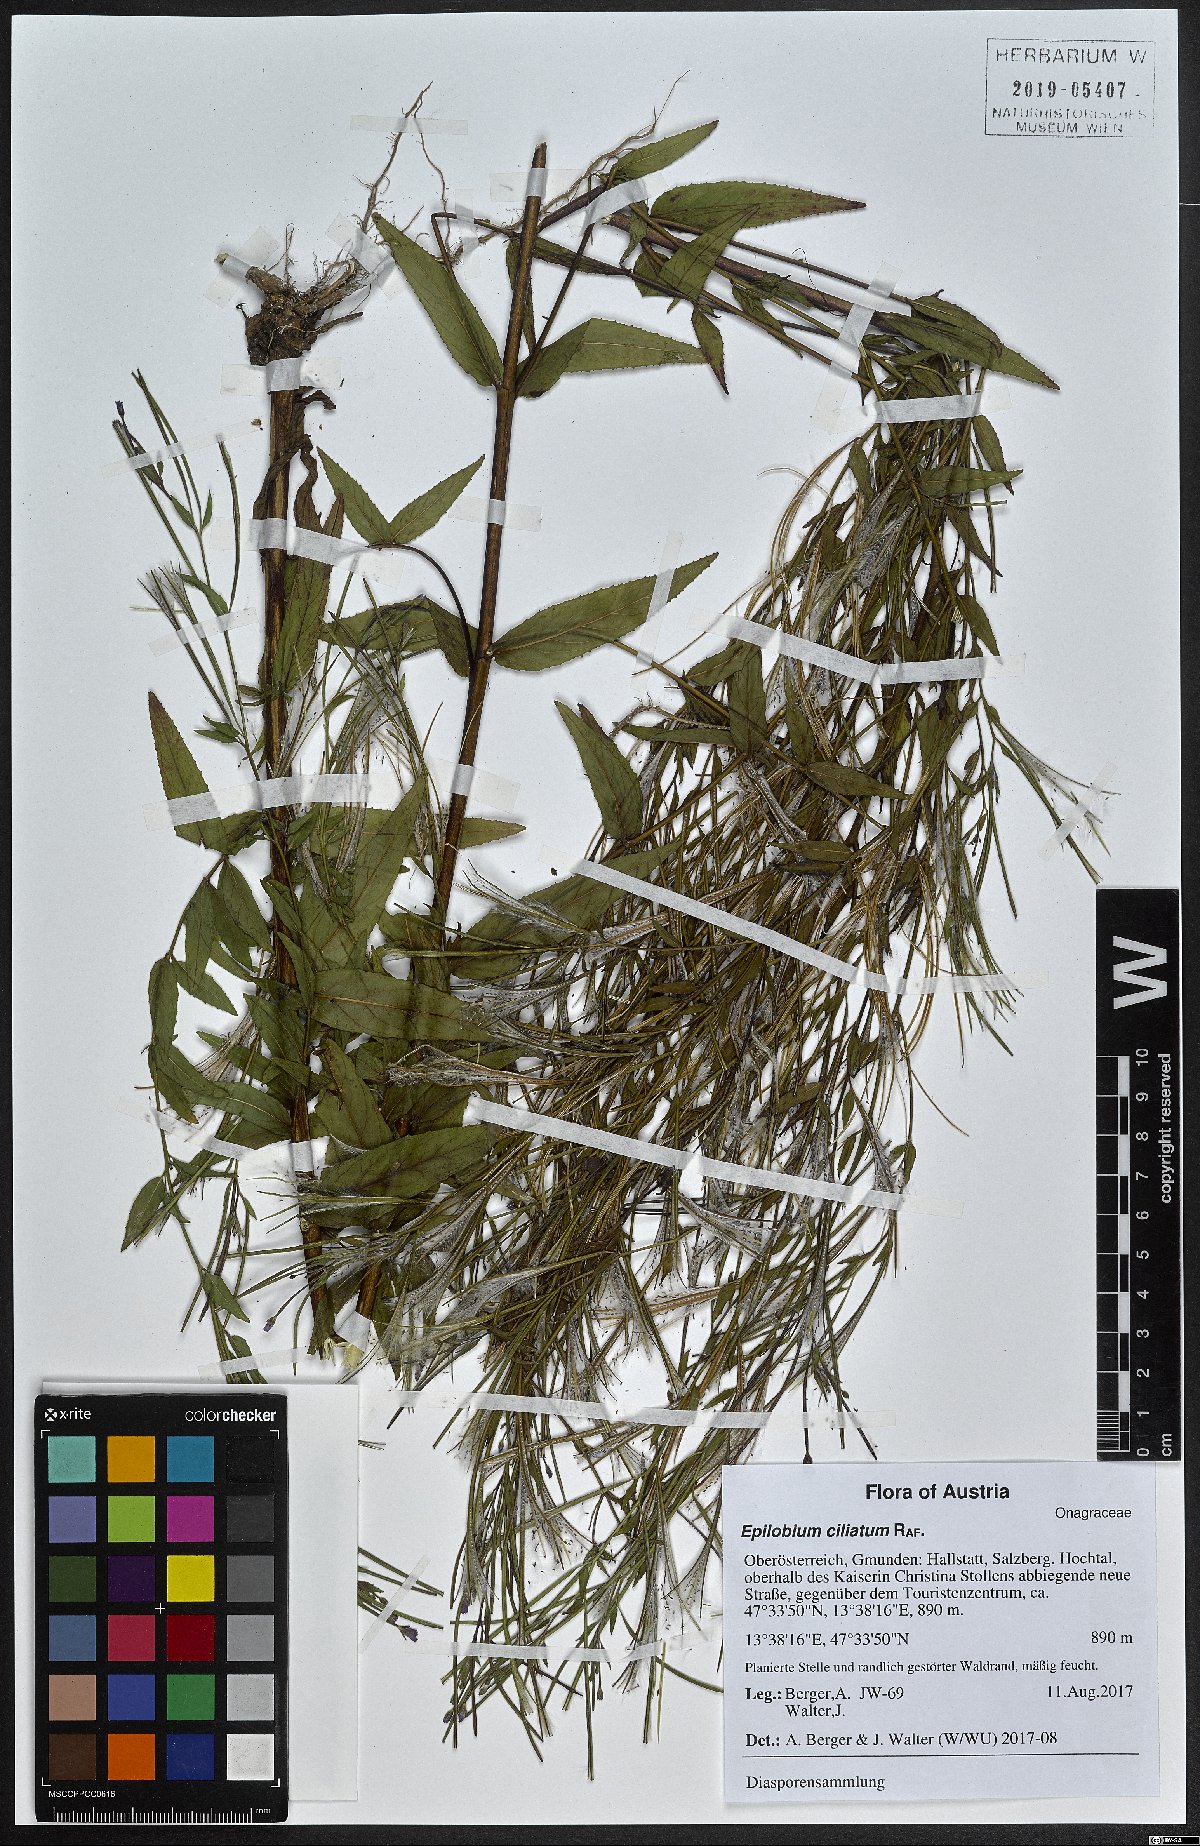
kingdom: Plantae
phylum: Tracheophyta
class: Magnoliopsida
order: Myrtales
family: Onagraceae
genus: Epilobium
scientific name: Epilobium ciliatum
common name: American willowherb
